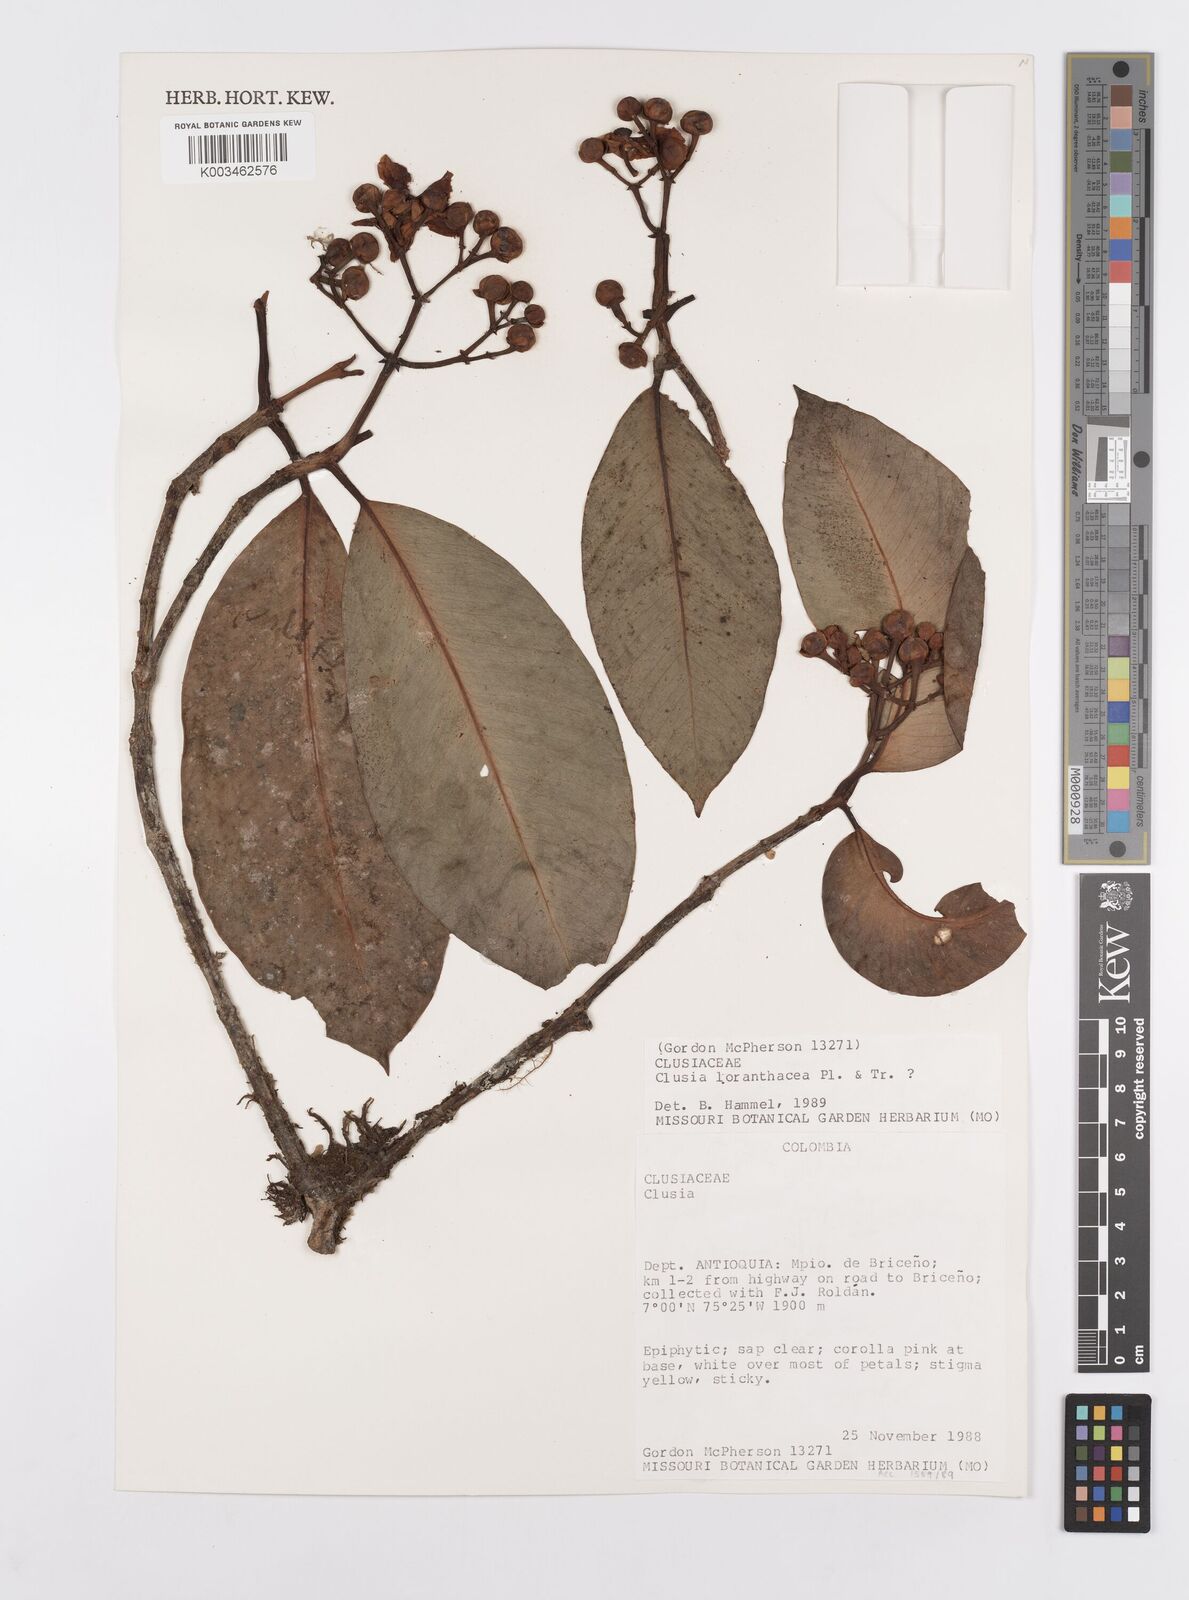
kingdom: Plantae
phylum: Tracheophyta
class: Magnoliopsida
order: Malpighiales
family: Clusiaceae
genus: Clusia
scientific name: Clusia loranthacea
